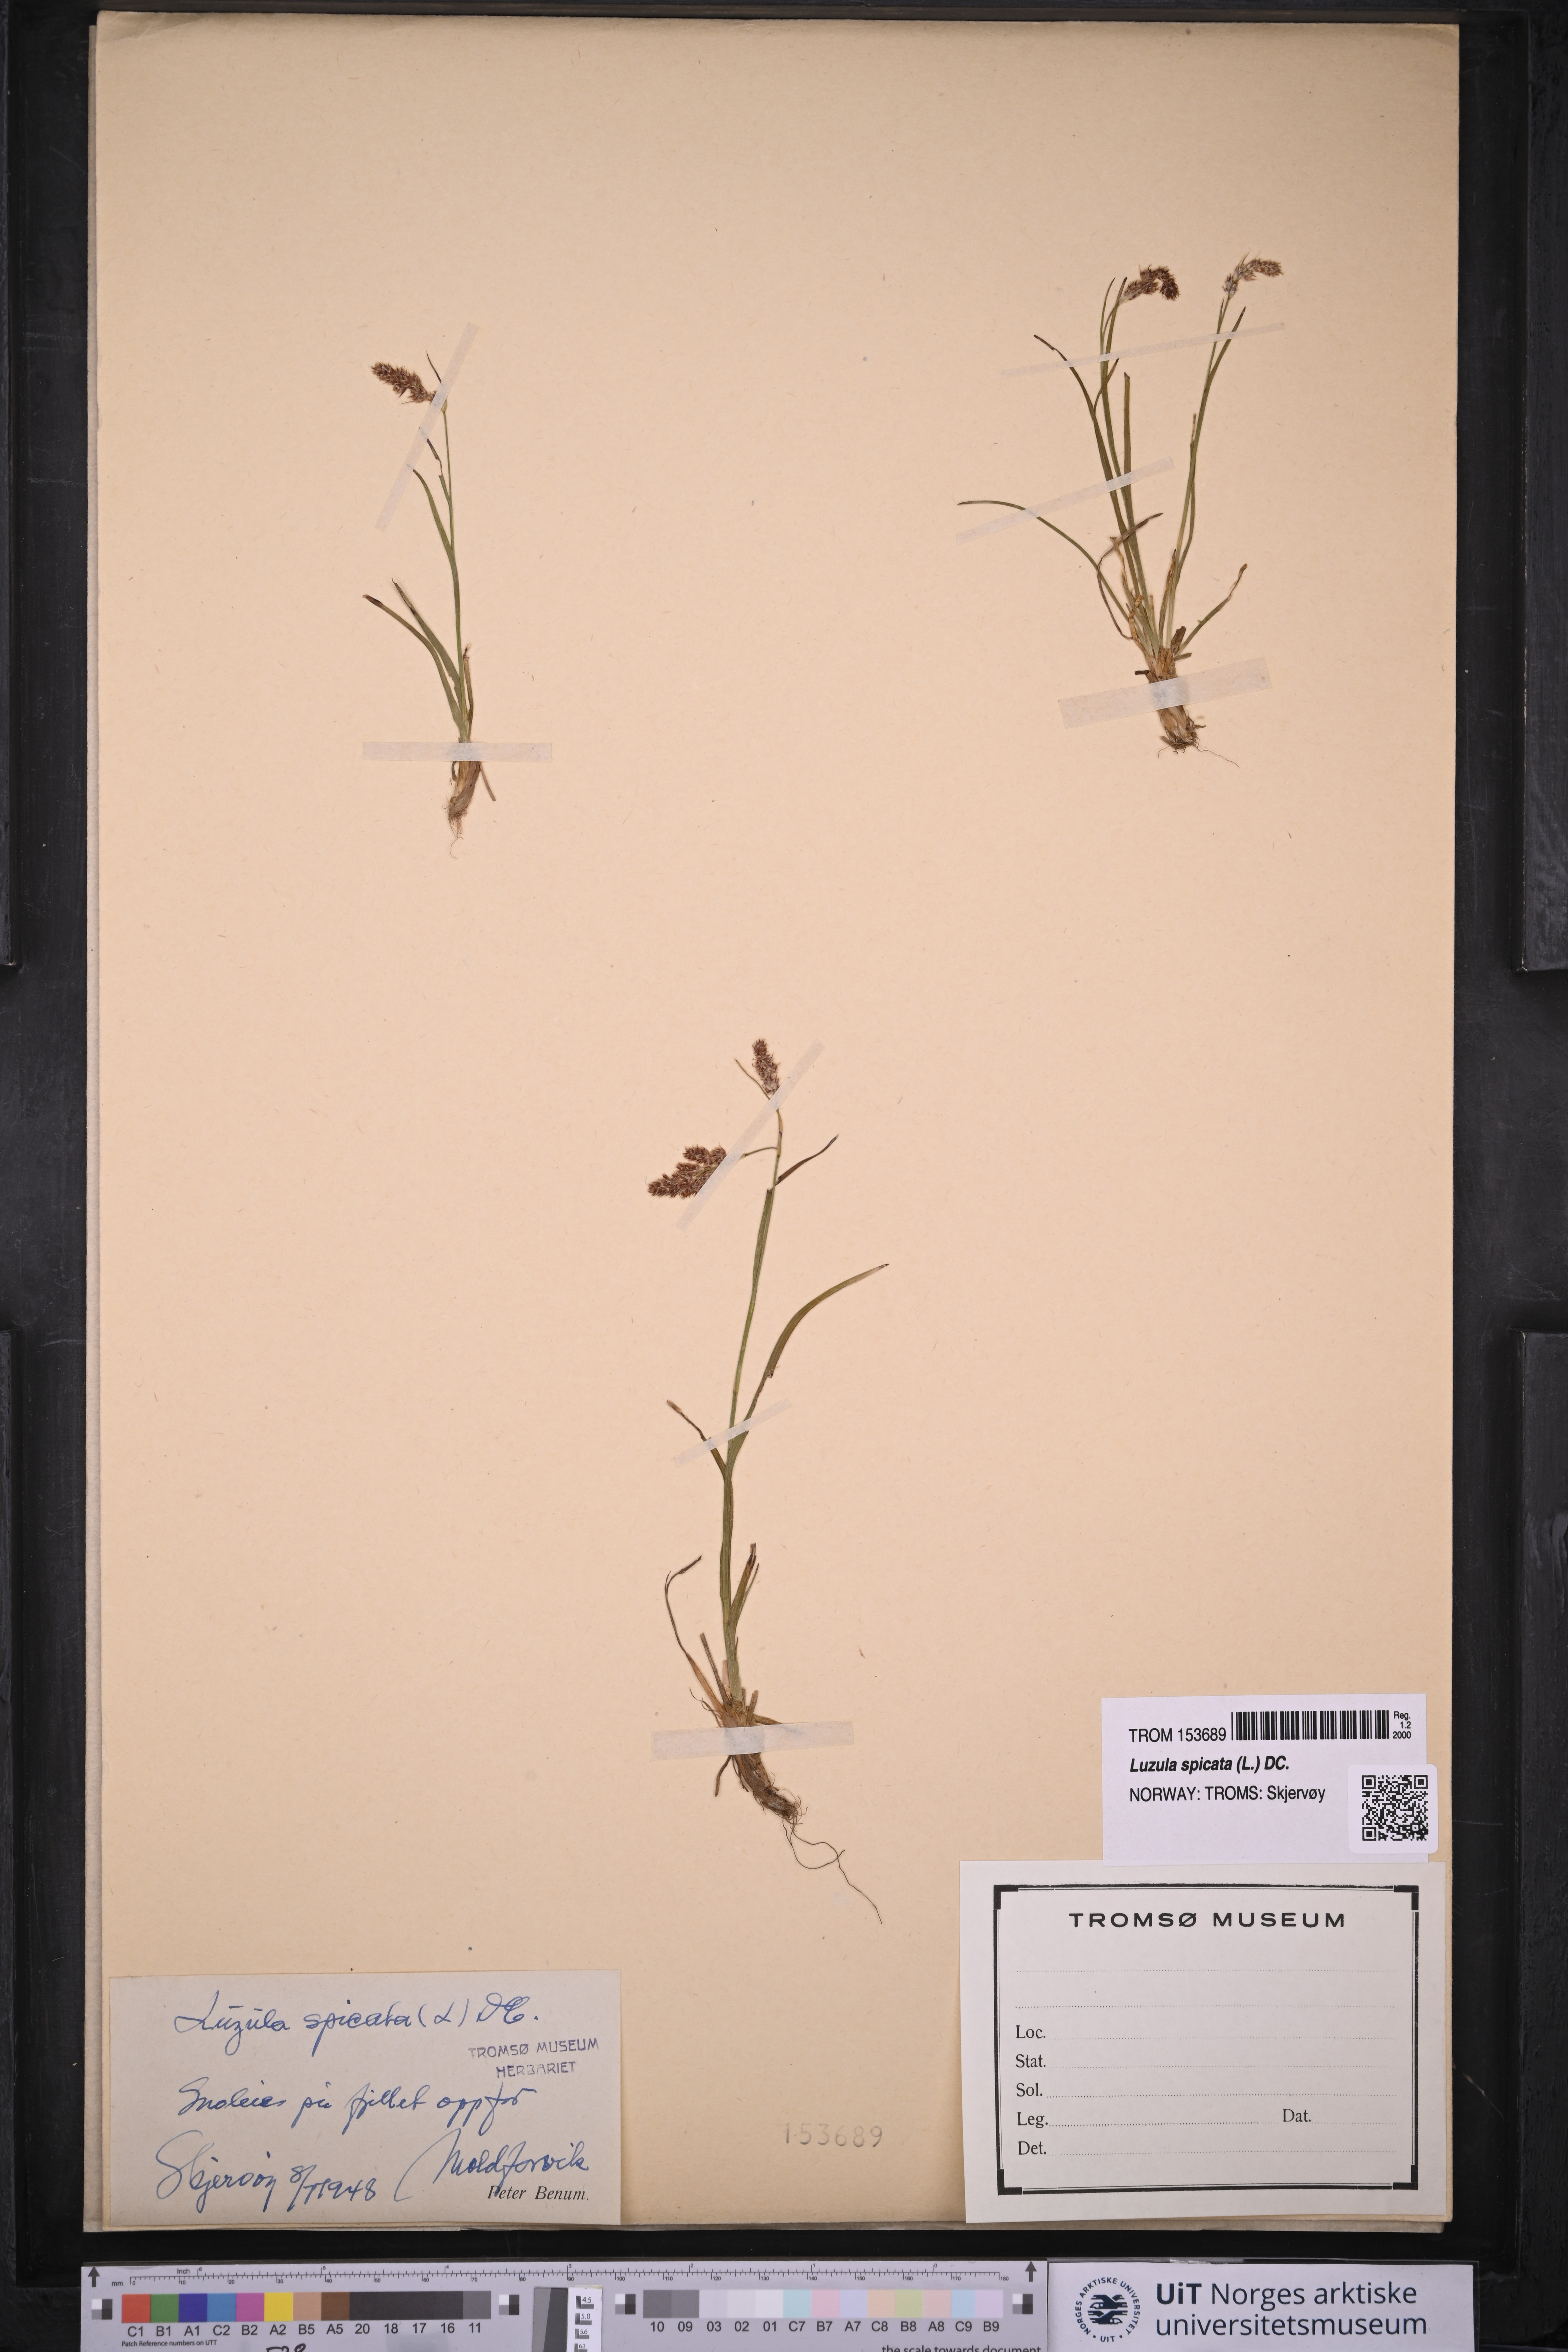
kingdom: Plantae
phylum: Tracheophyta
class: Liliopsida
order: Poales
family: Juncaceae
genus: Luzula
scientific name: Luzula spicata
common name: Spiked wood-rush
